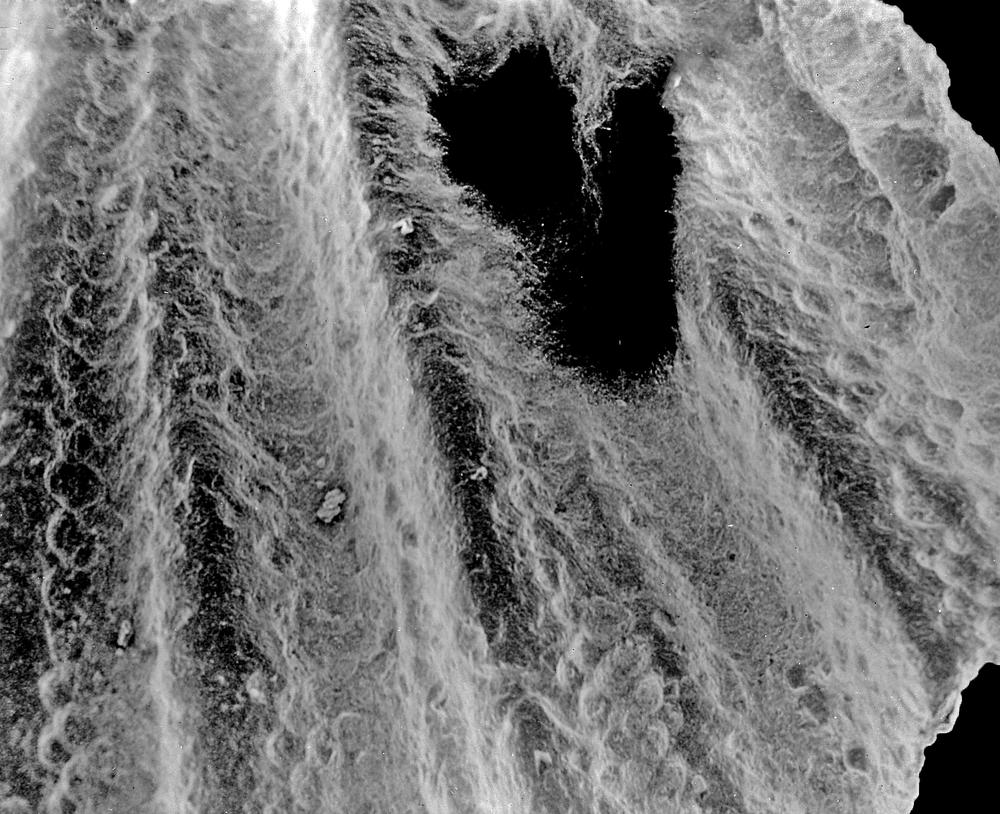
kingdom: Animalia
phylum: Brachiopoda
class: Rhynchonellata
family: Draboviidae
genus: Oanduporella
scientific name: Oanduporella
